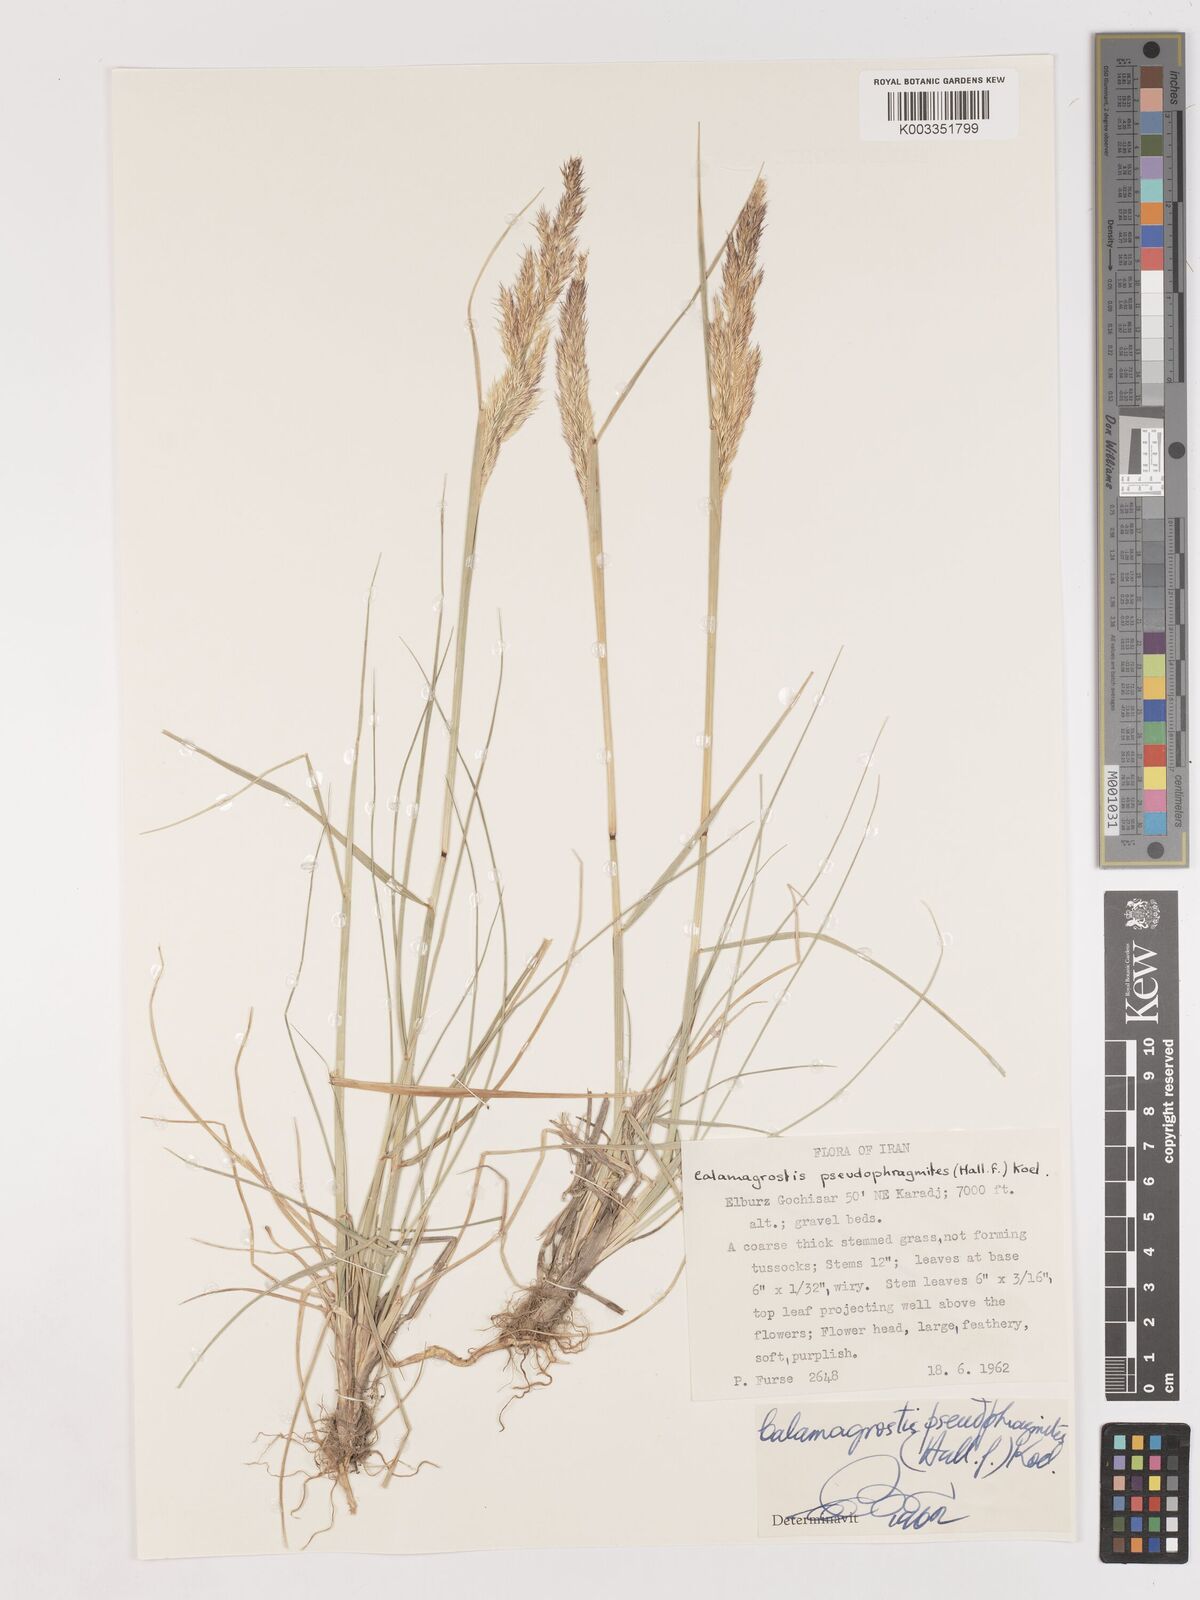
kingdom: Plantae
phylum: Tracheophyta
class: Liliopsida
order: Poales
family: Poaceae
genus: Calamagrostis
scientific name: Calamagrostis pseudophragmites
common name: Coastal small-reed
